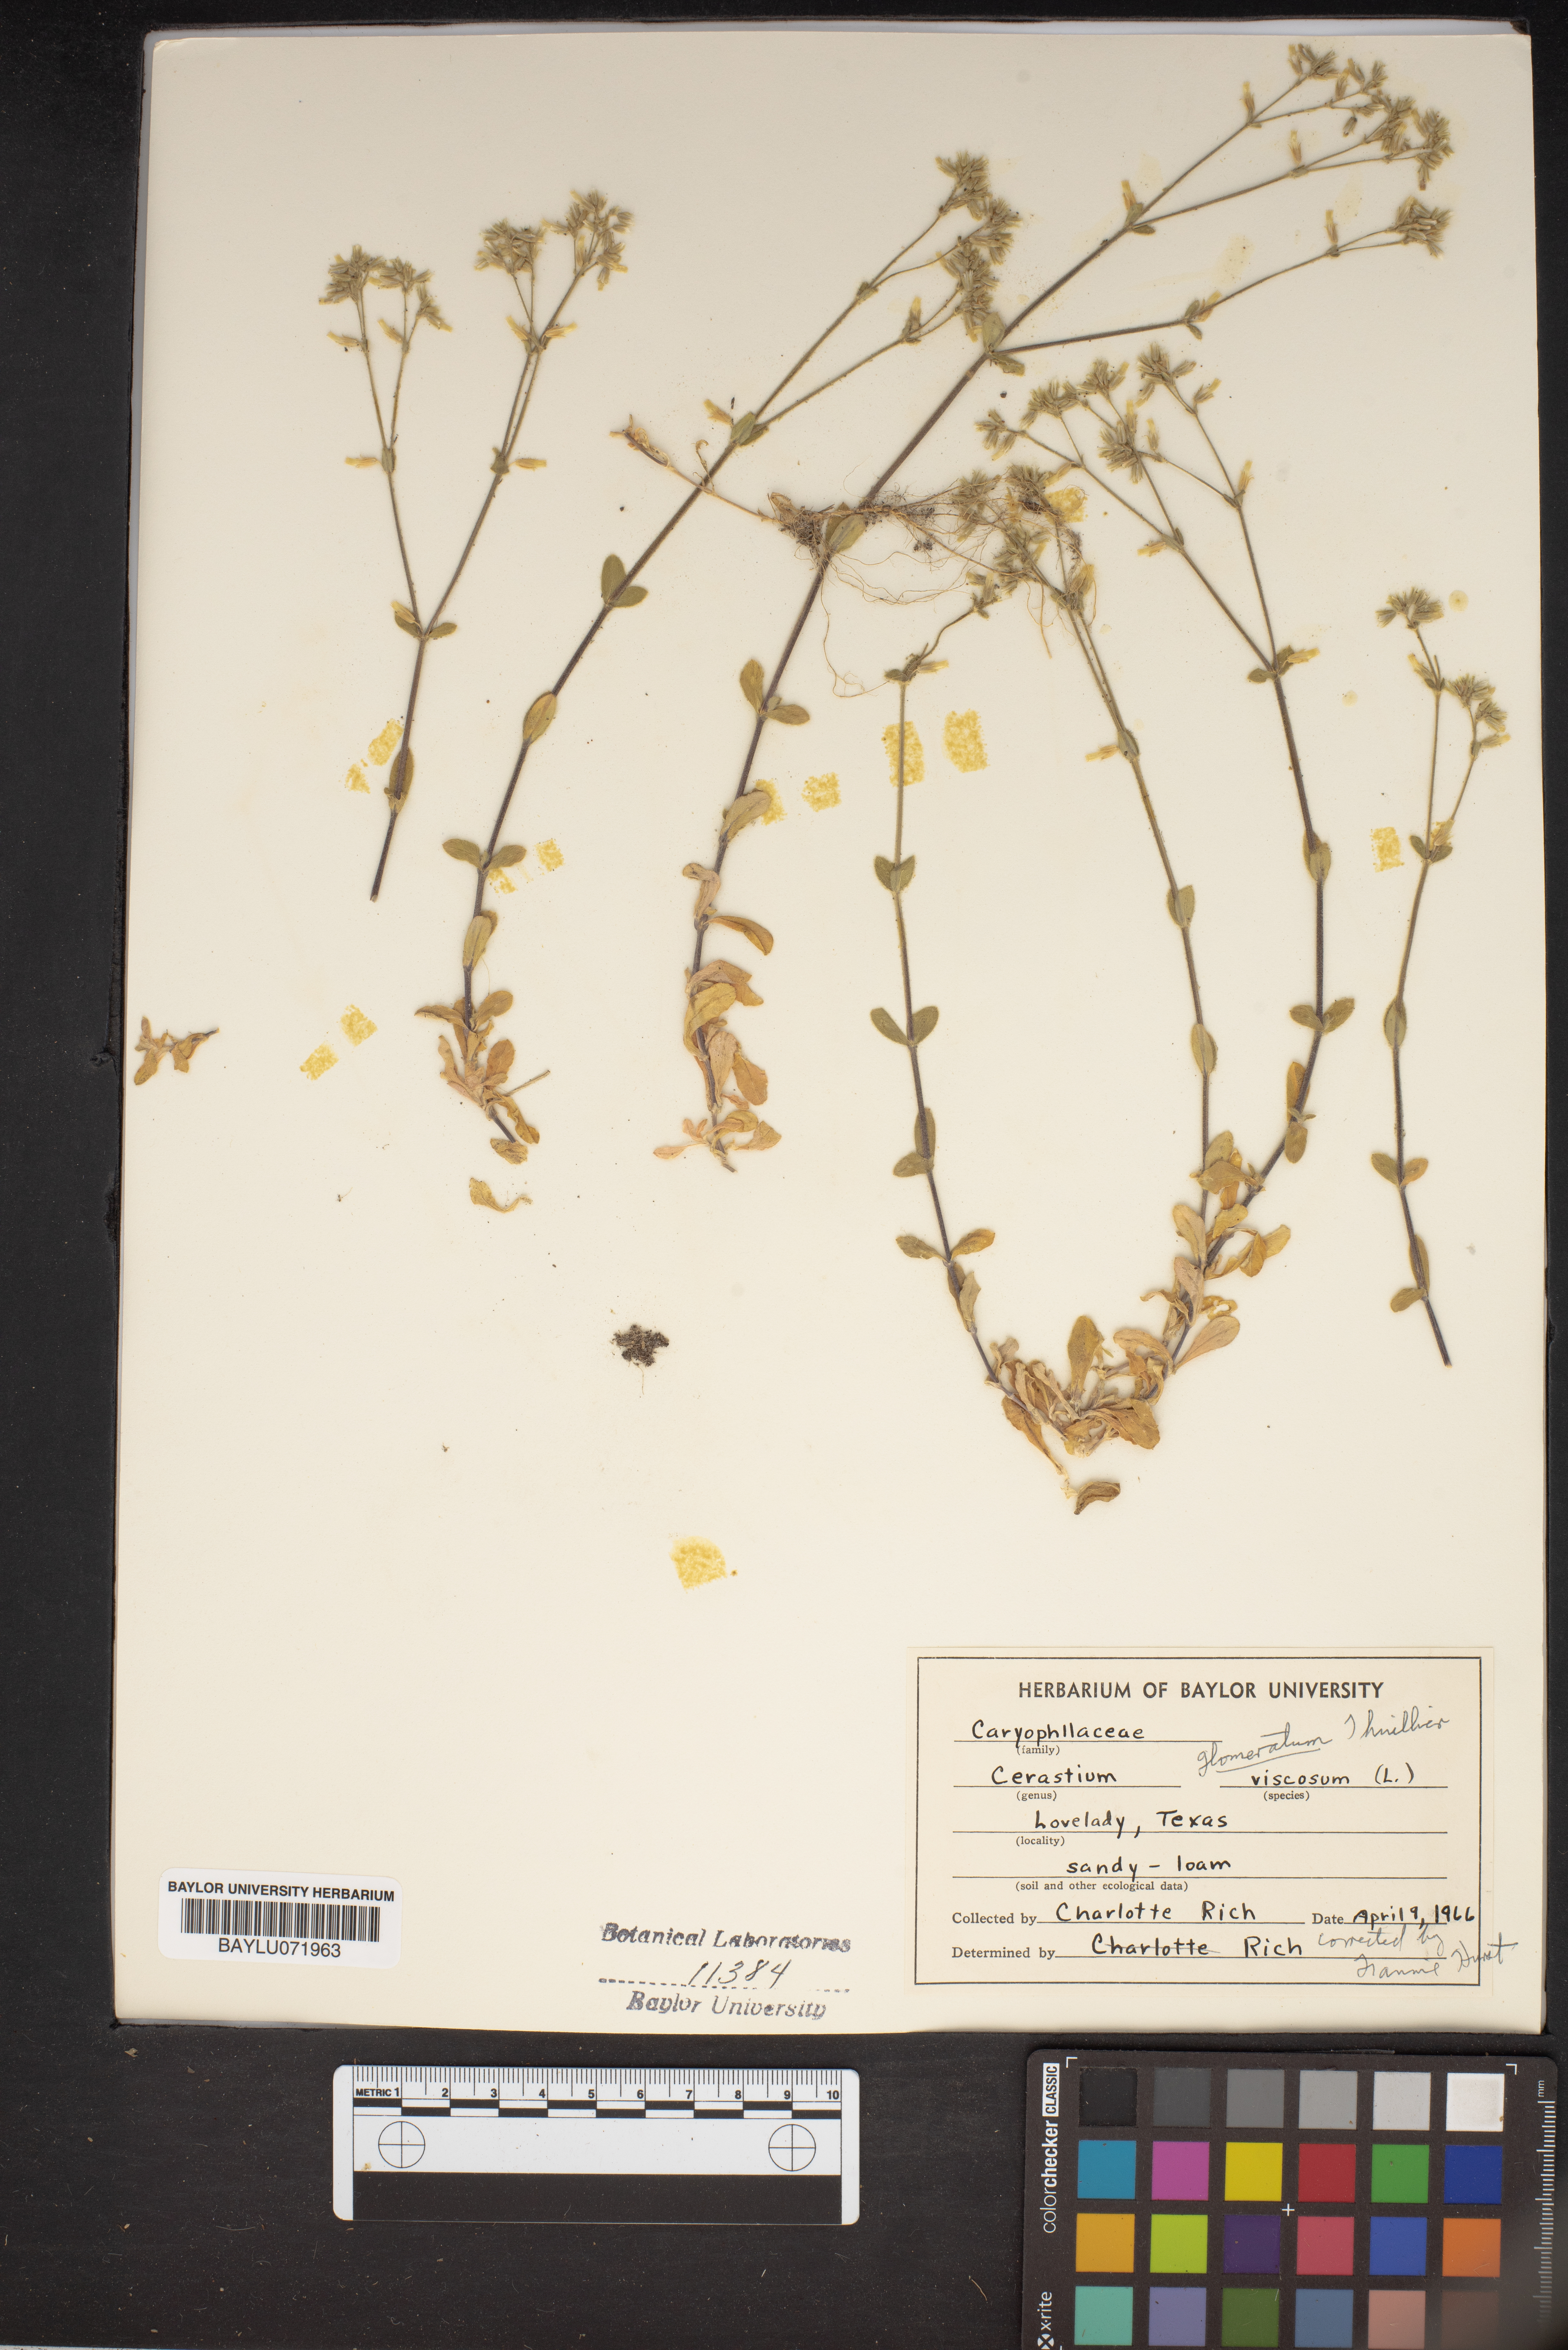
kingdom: Plantae
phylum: Tracheophyta
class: Magnoliopsida
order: Caryophyllales
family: Caryophyllaceae
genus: Cerastium
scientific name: Cerastium holosteoides
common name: Big chickweed
